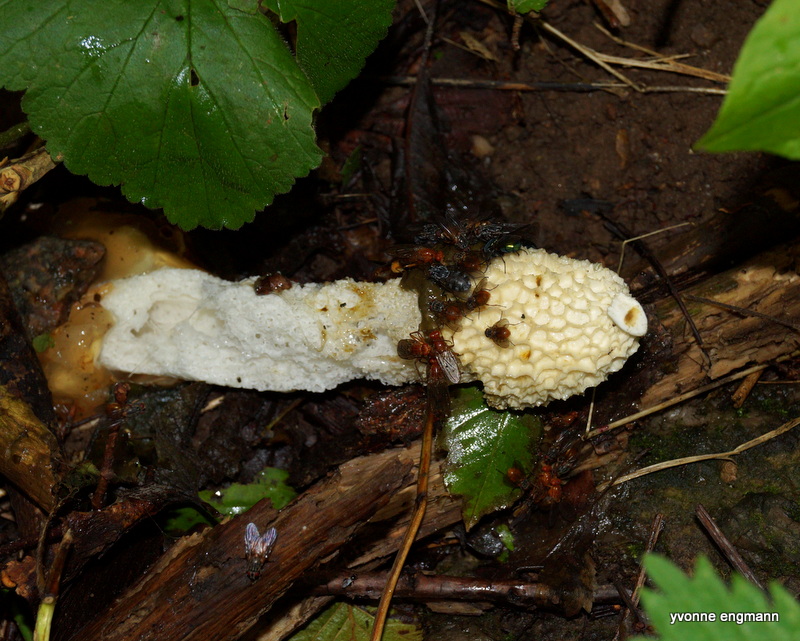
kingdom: Fungi
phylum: Basidiomycota
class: Agaricomycetes
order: Phallales
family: Phallaceae
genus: Phallus
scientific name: Phallus impudicus
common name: almindelig stinksvamp
